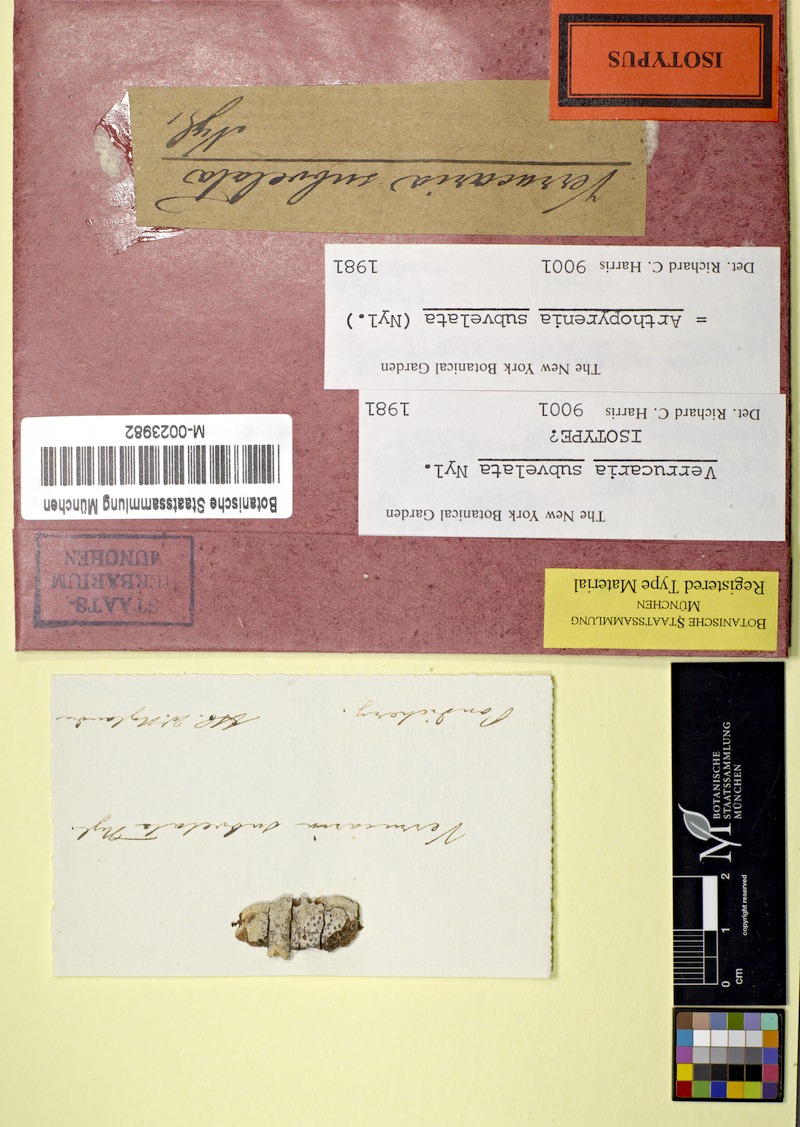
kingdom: Fungi
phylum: Ascomycota
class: Dothideomycetes
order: Trypetheliales
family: Trypetheliaceae
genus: Arthopyrenia
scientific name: Arthopyrenia subvelata
